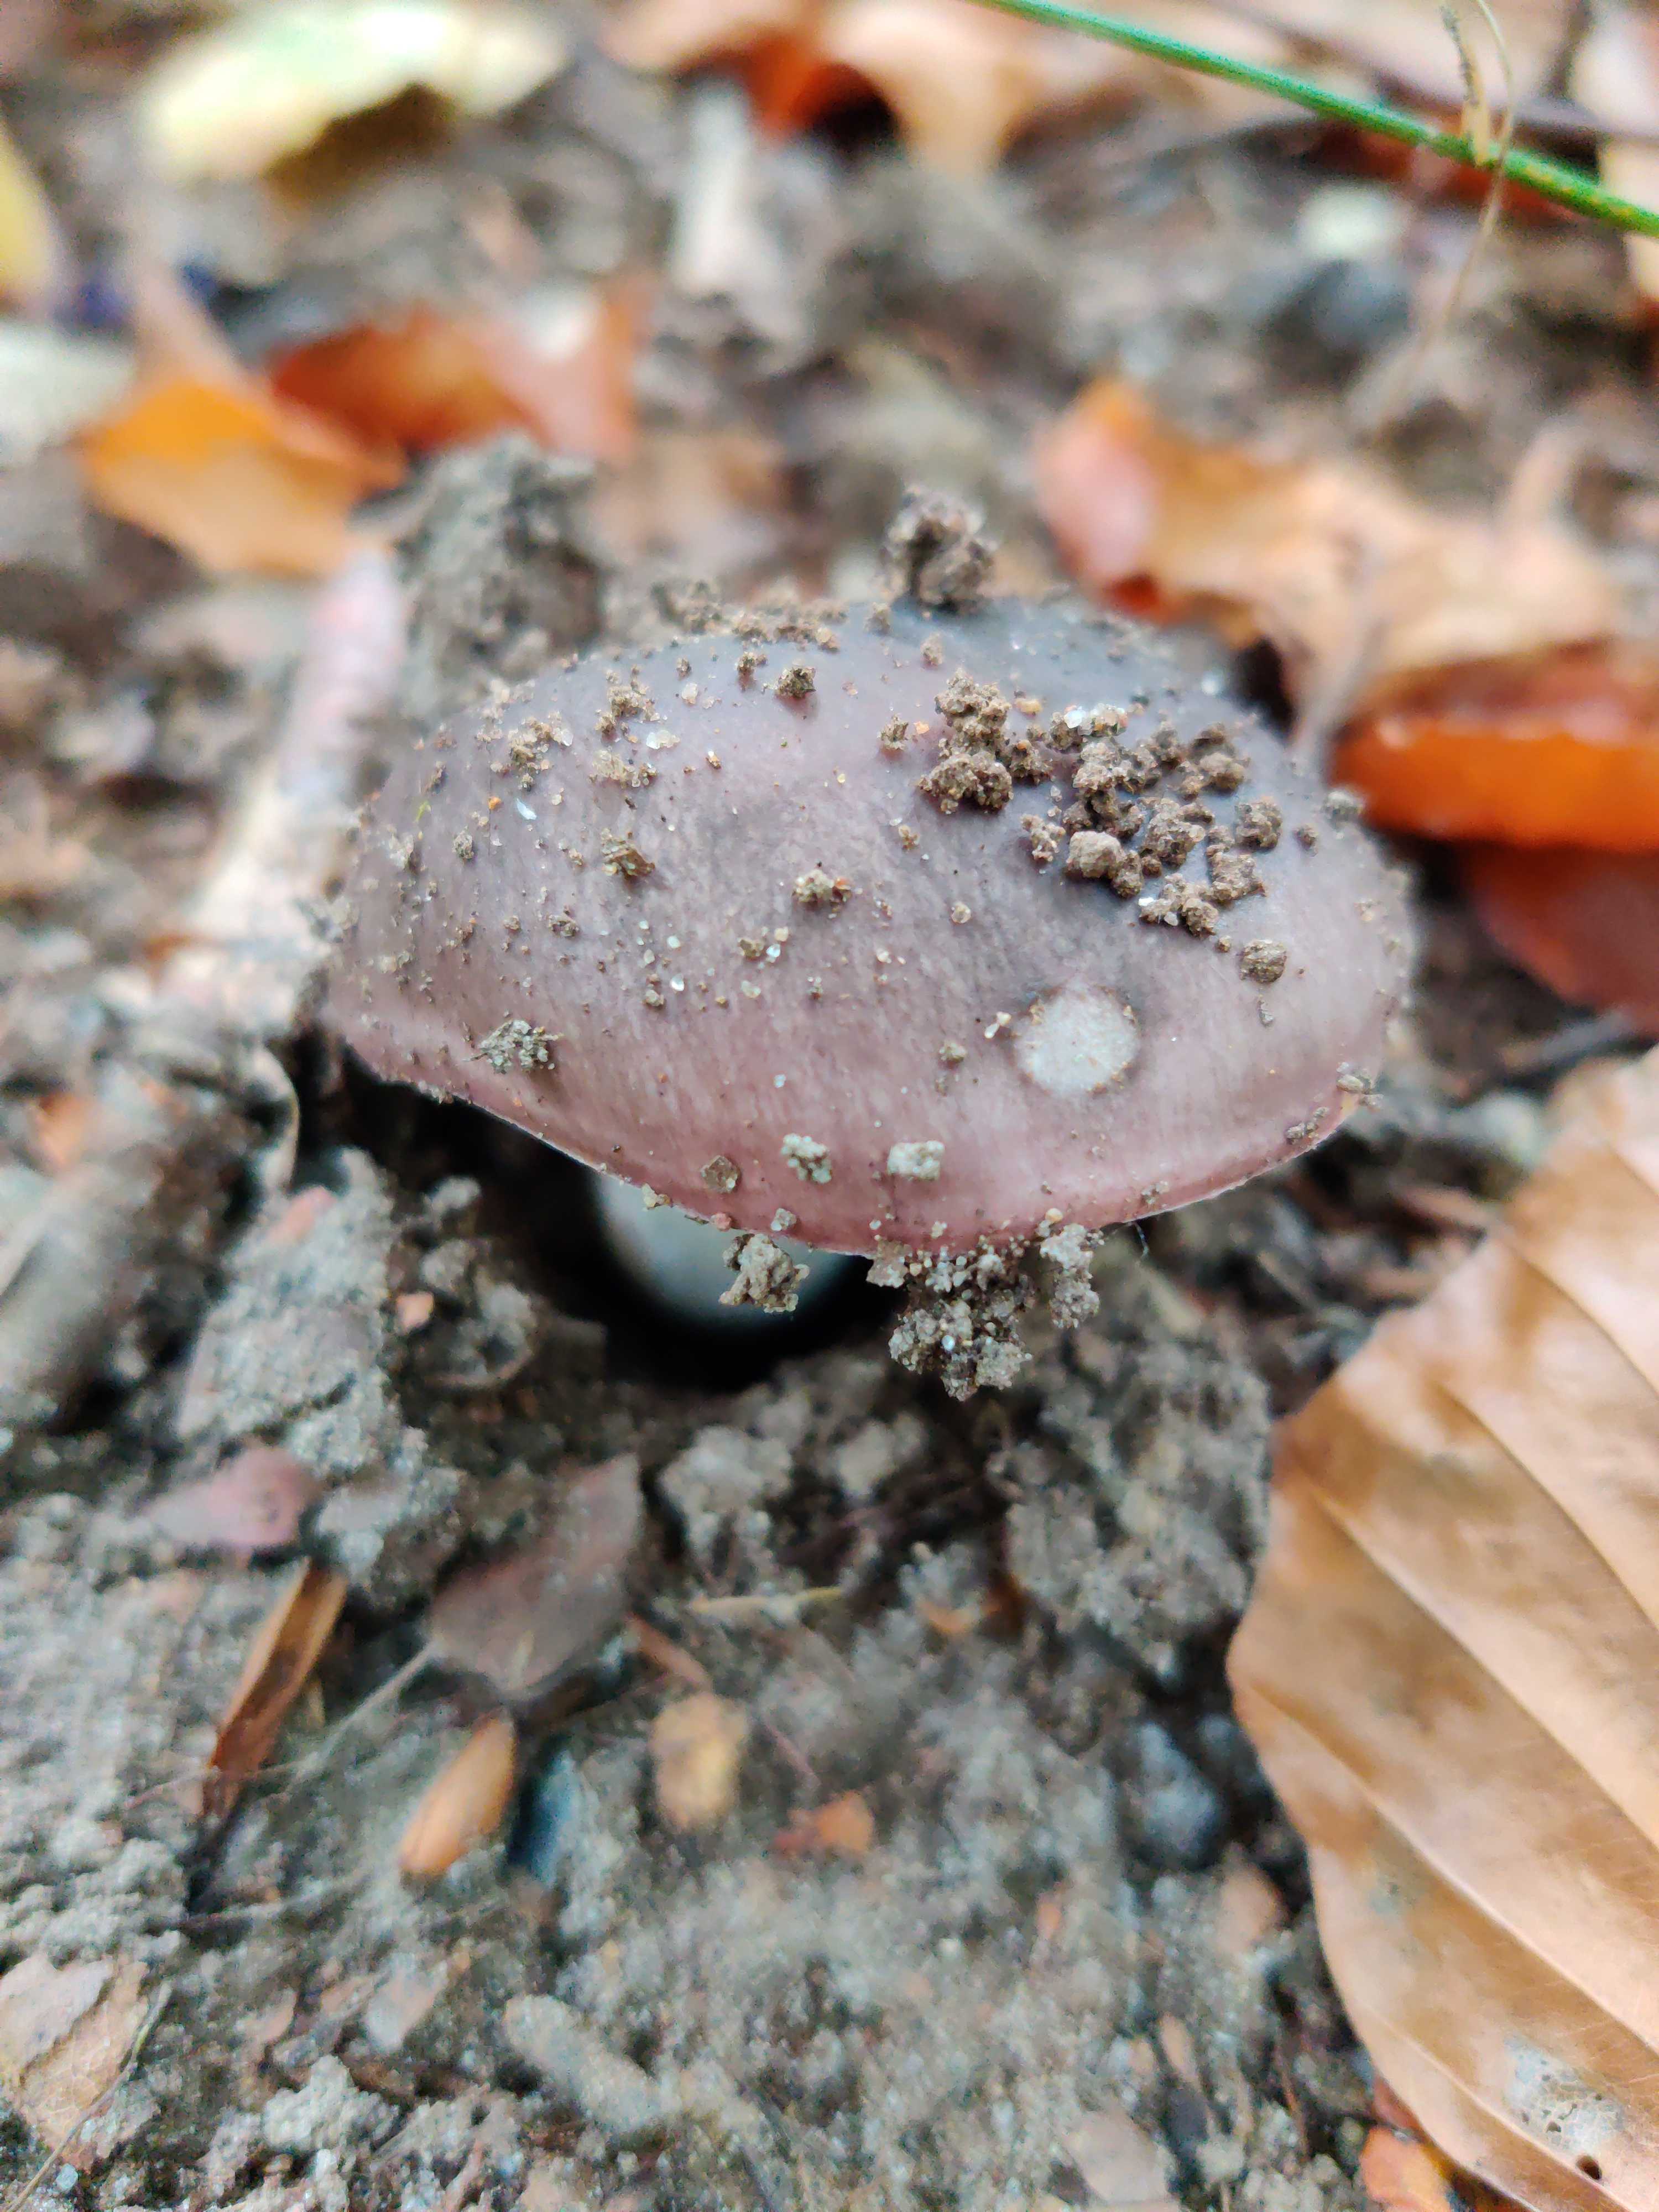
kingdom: Fungi
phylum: Basidiomycota
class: Agaricomycetes
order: Russulales
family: Russulaceae
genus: Russula
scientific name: Russula vesca
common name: spiselig skørhat
